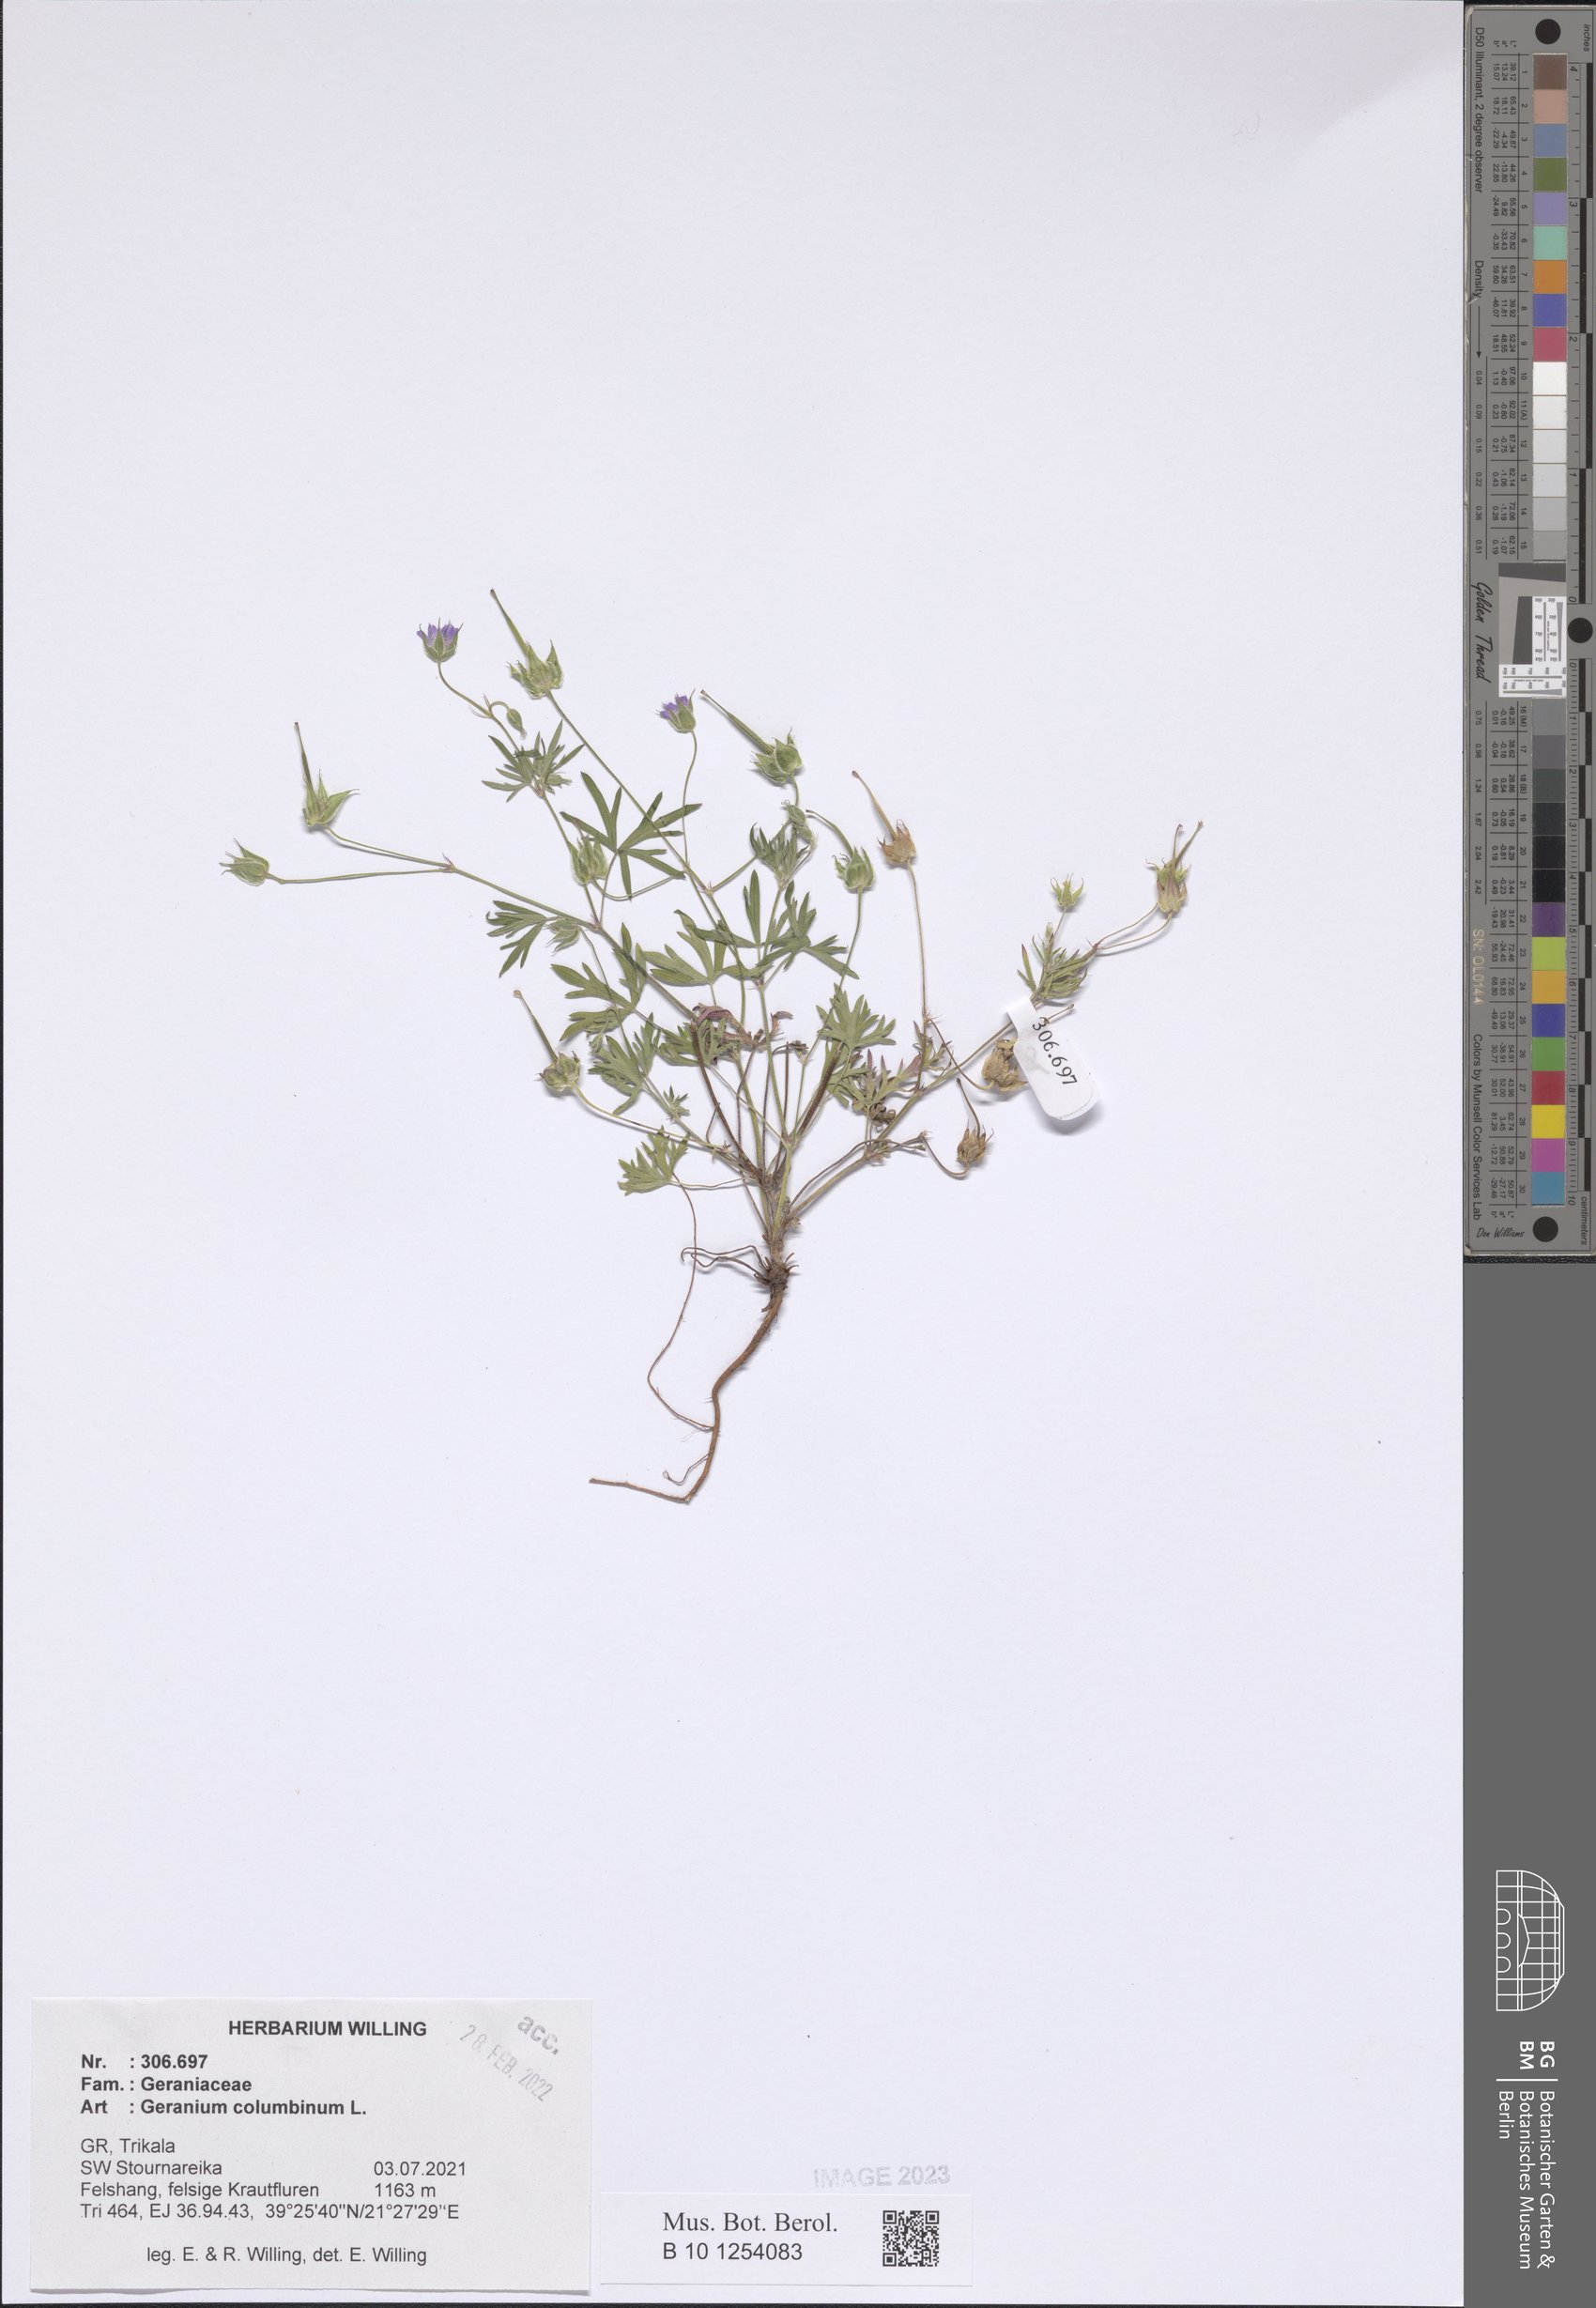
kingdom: Plantae
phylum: Tracheophyta
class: Magnoliopsida
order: Geraniales
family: Geraniaceae
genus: Geranium
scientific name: Geranium columbinum
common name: Long-stalked crane's-bill
